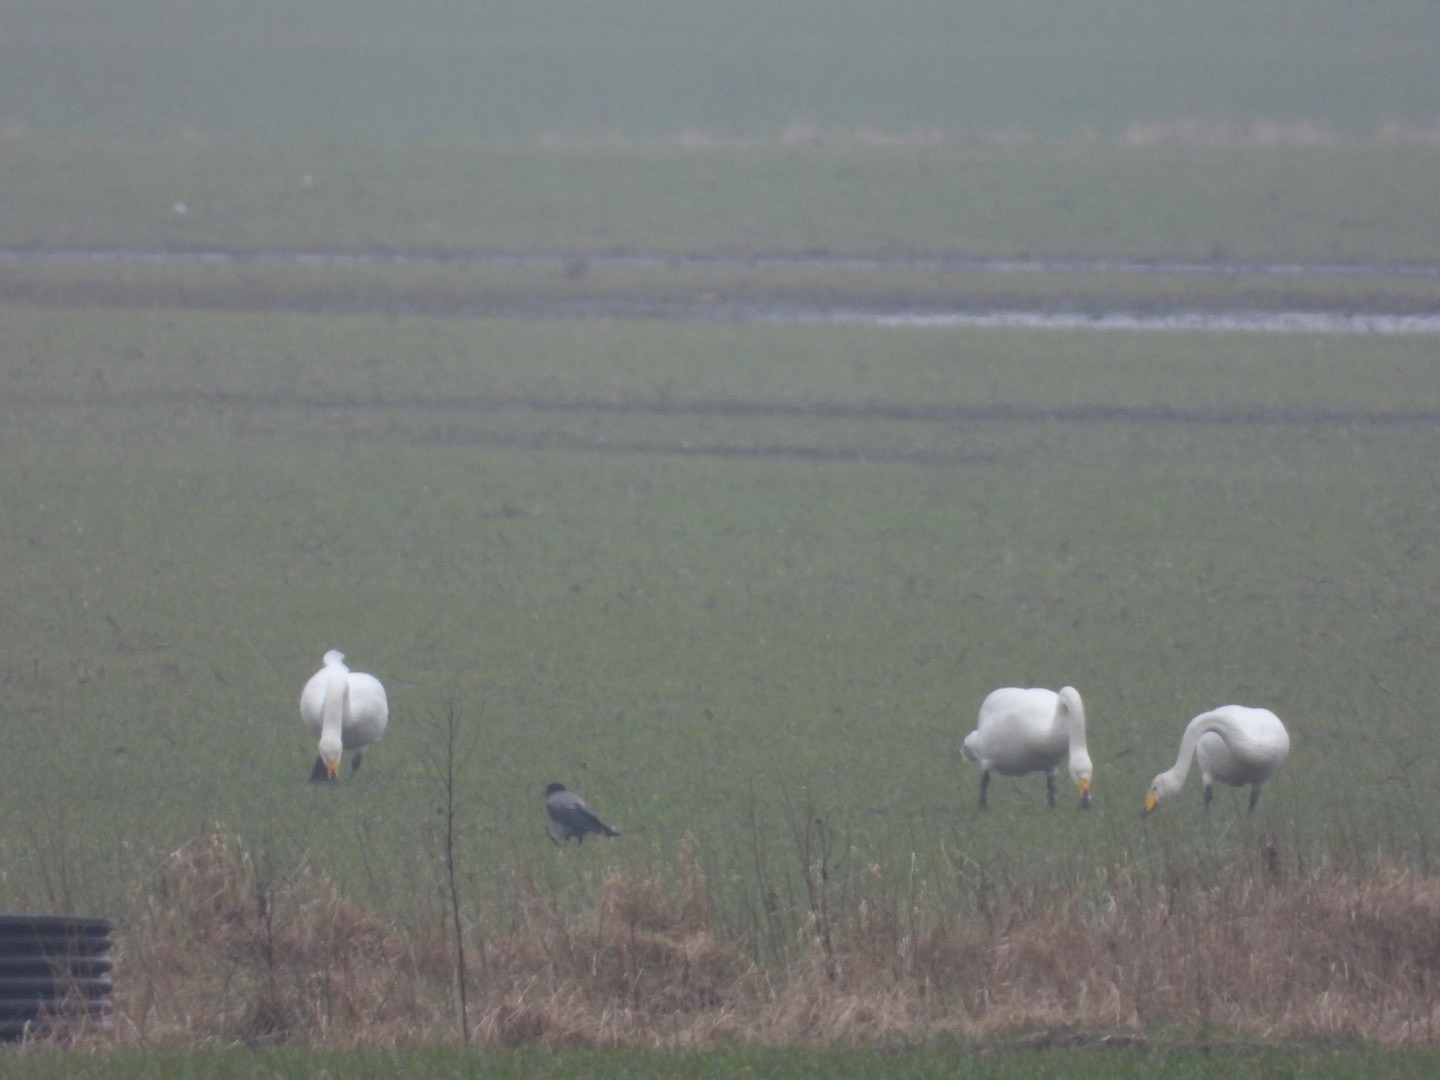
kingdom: Animalia
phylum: Chordata
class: Aves
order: Anseriformes
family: Anatidae
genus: Cygnus
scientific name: Cygnus cygnus
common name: Sangsvane
